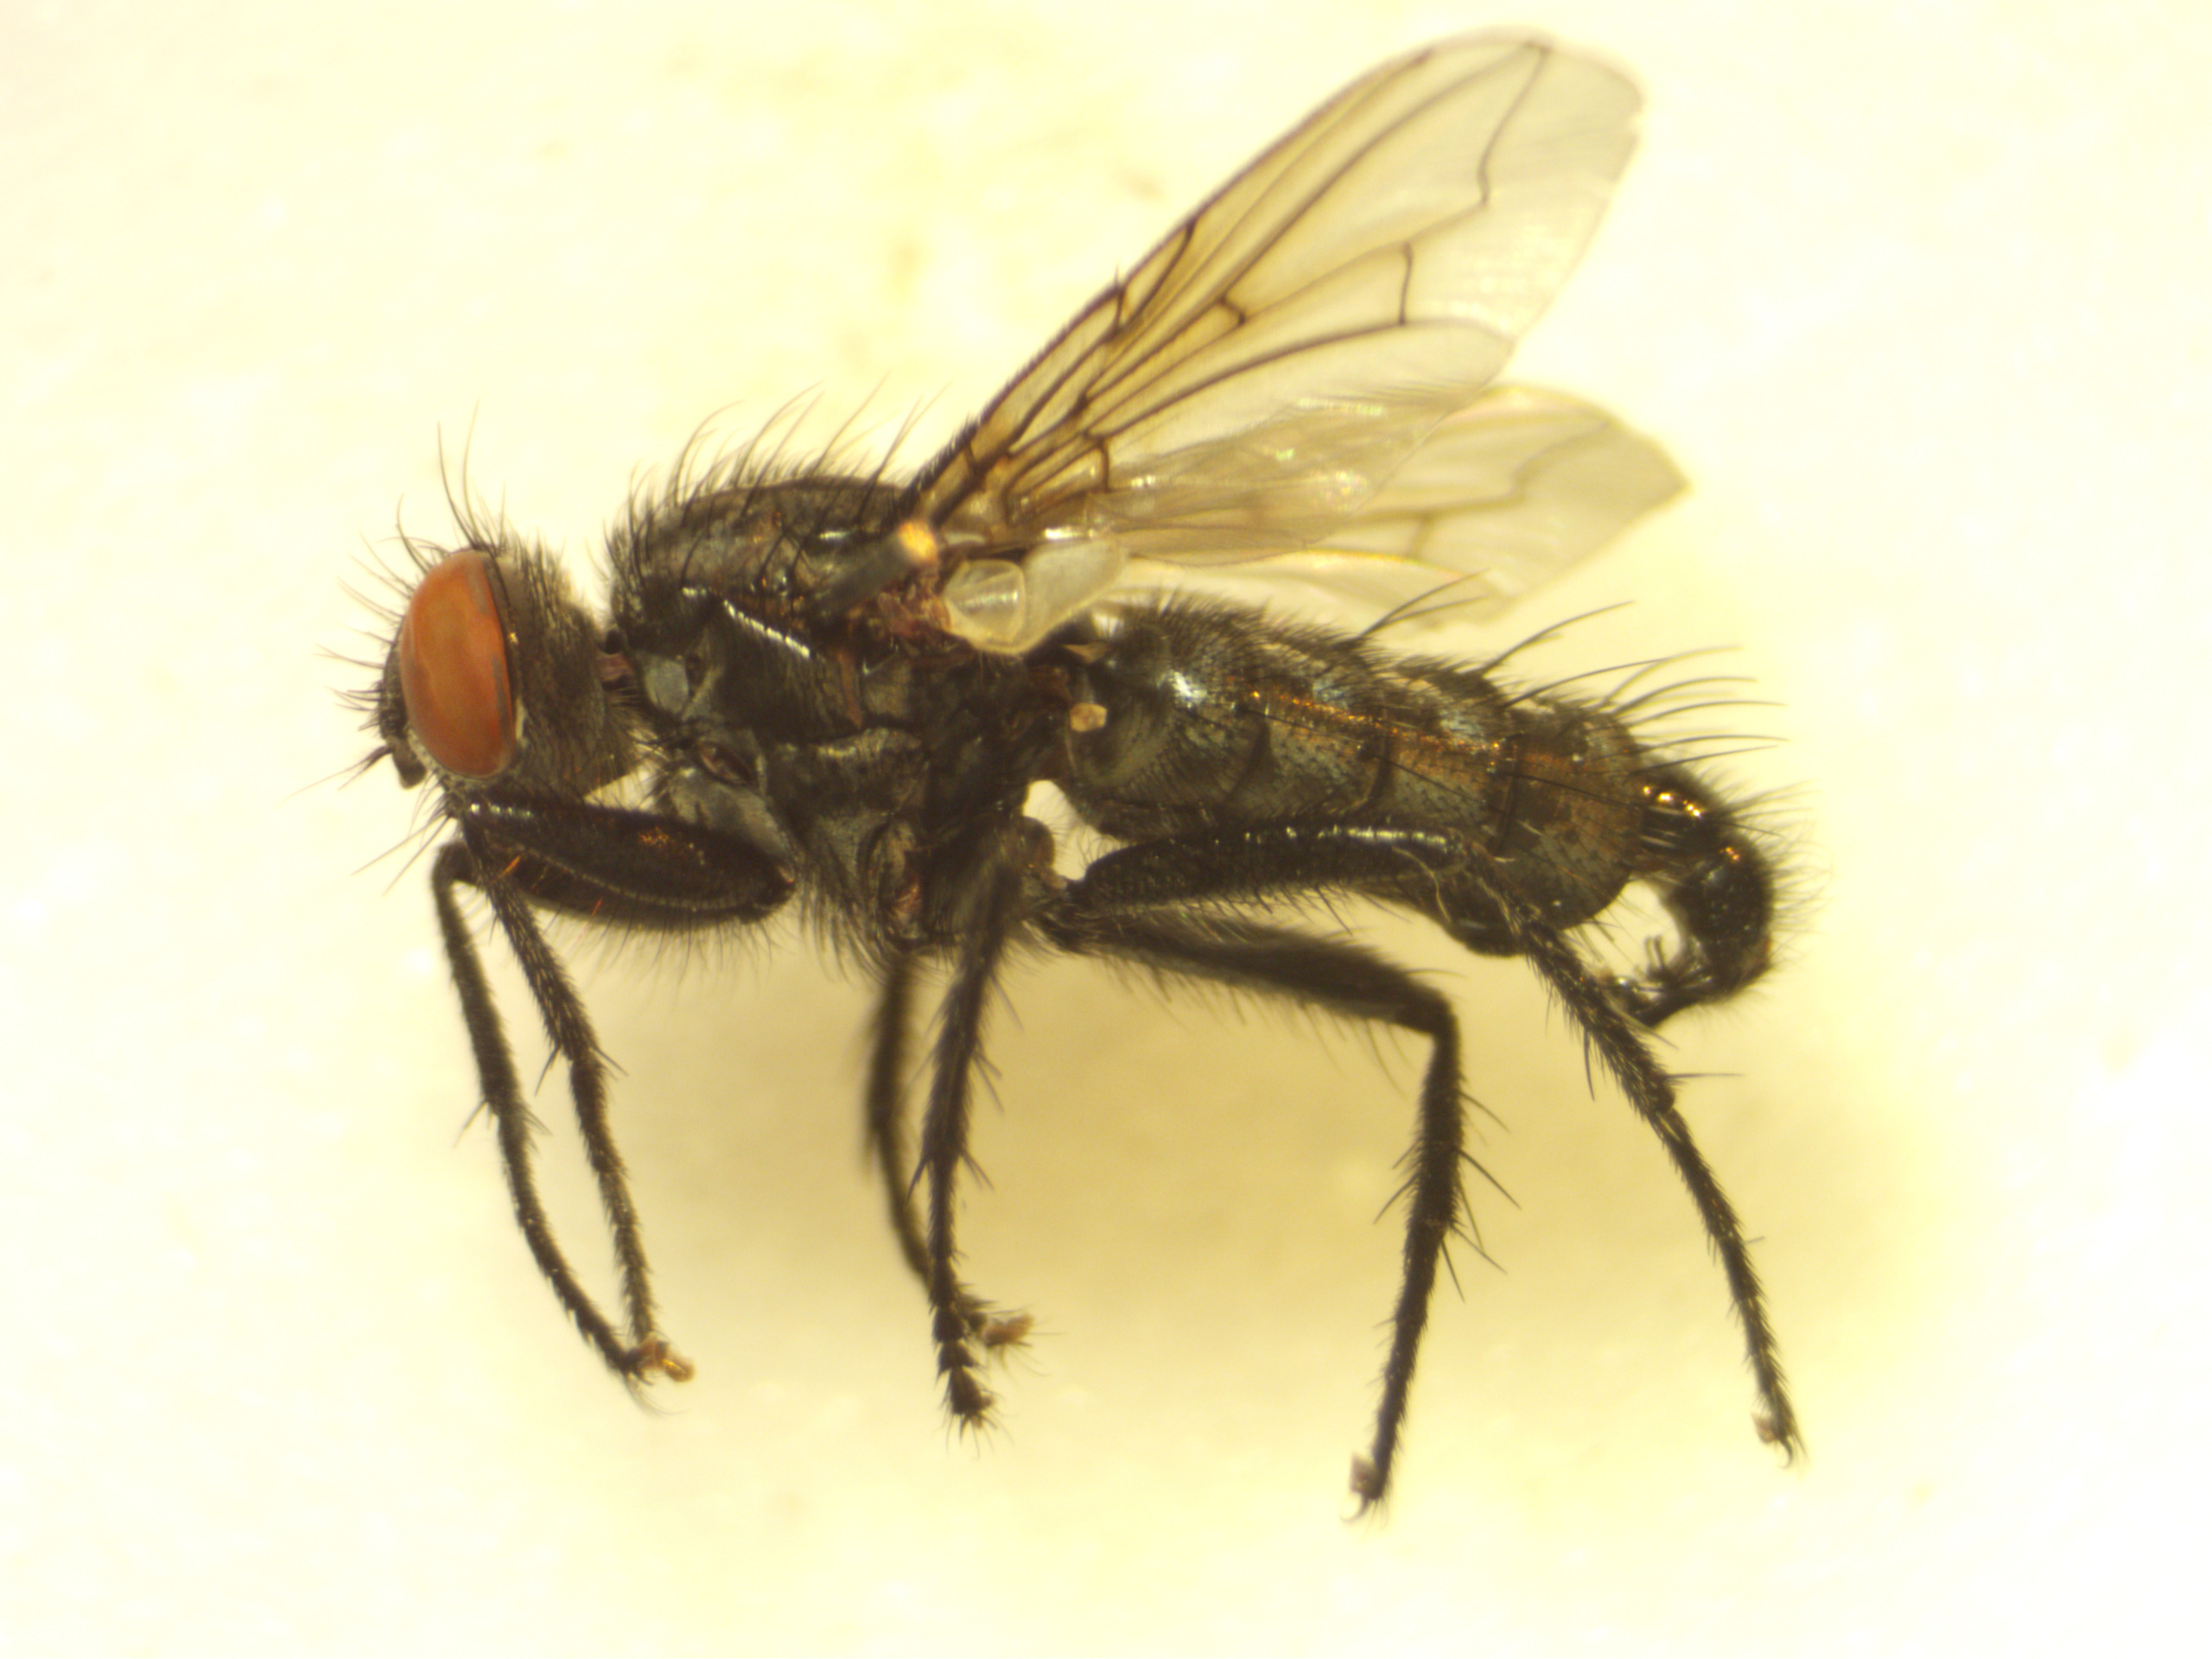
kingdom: Animalia
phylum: Arthropoda
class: Insecta
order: Diptera
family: Sarcophagidae
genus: Sarcophaga
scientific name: Sarcophaga depressifrons
